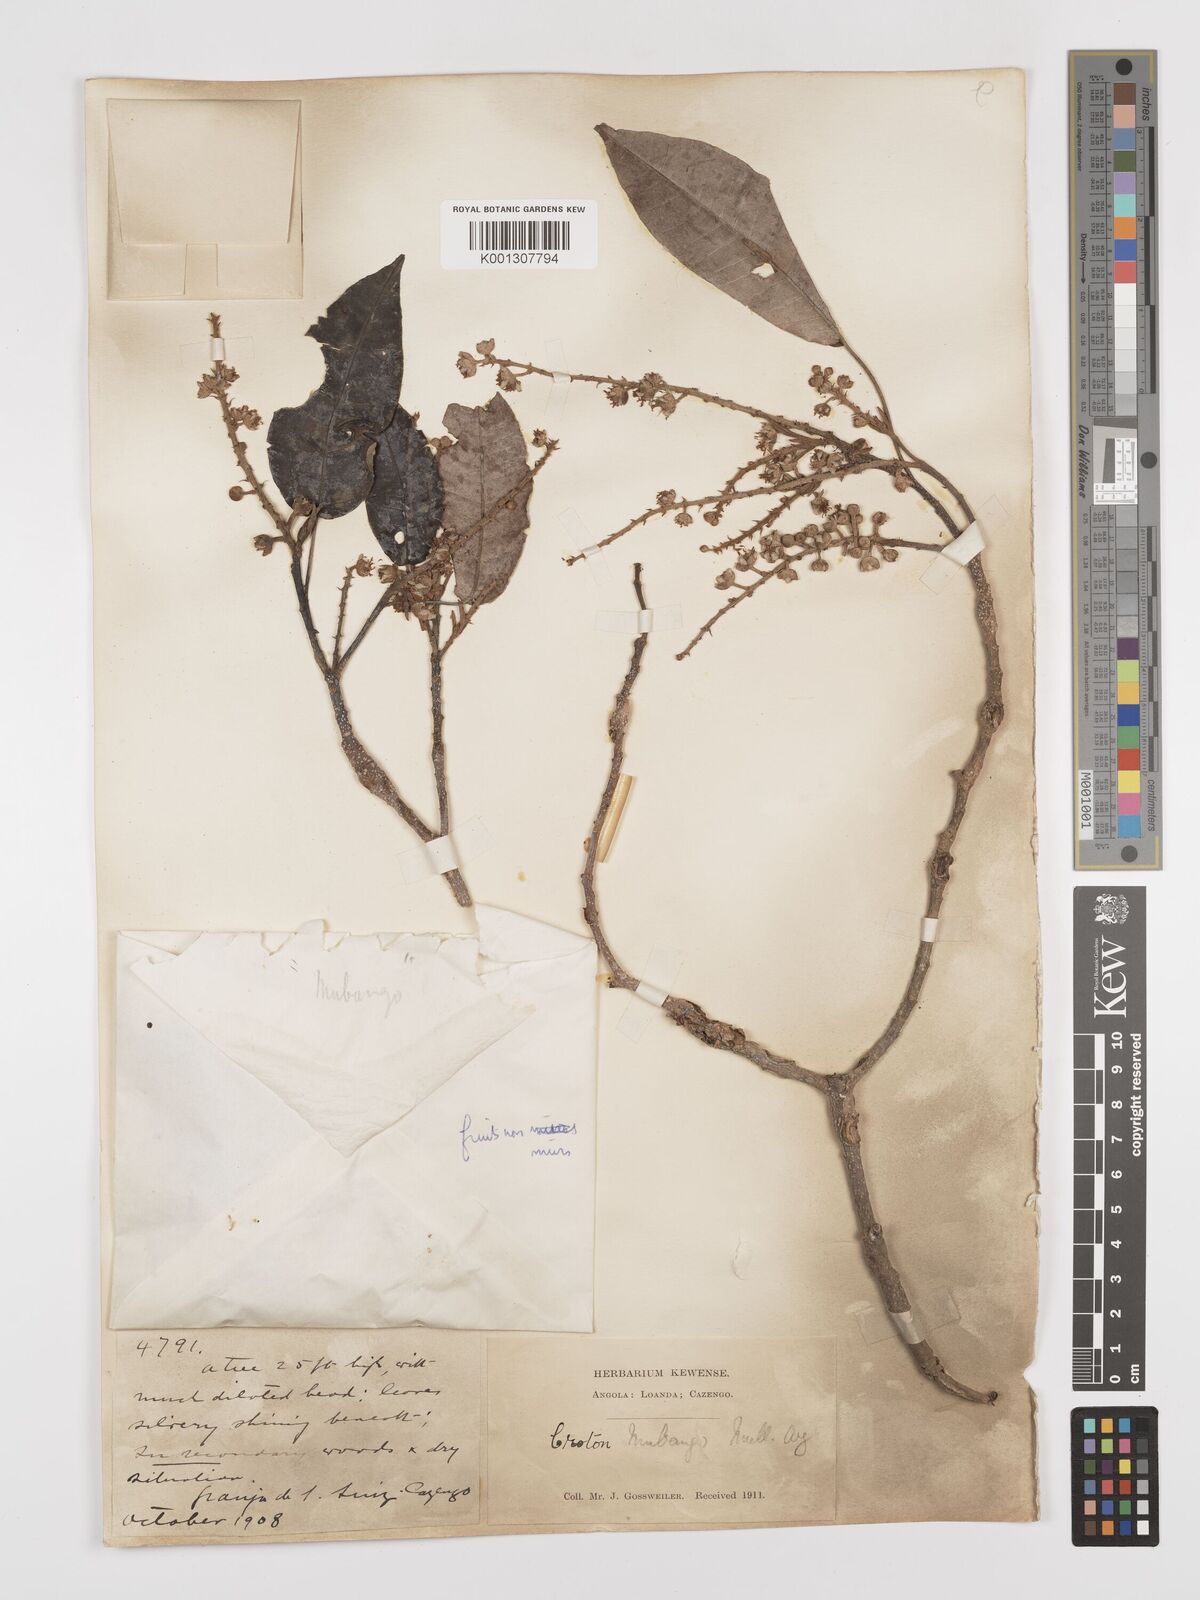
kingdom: Plantae
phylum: Tracheophyta
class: Magnoliopsida
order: Malpighiales
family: Euphorbiaceae
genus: Croton
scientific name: Croton mubango
